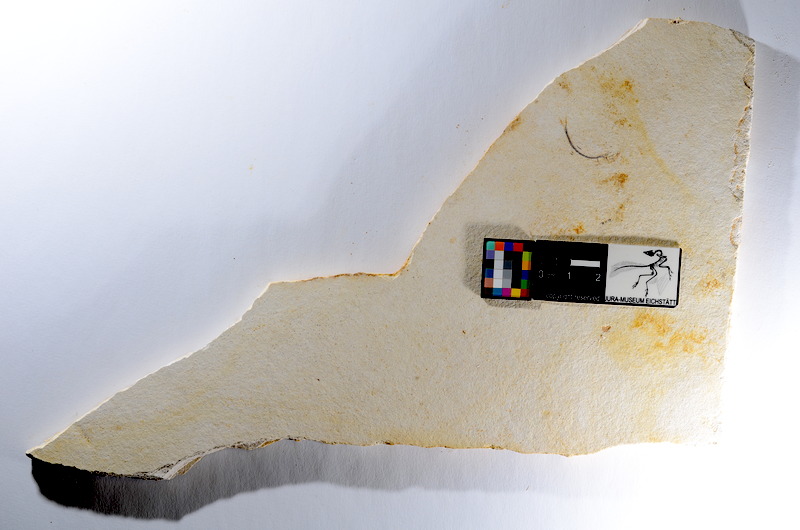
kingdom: Animalia
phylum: Chordata
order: Salmoniformes
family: Orthogonikleithridae
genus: Orthogonikleithrus
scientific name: Orthogonikleithrus hoelli
